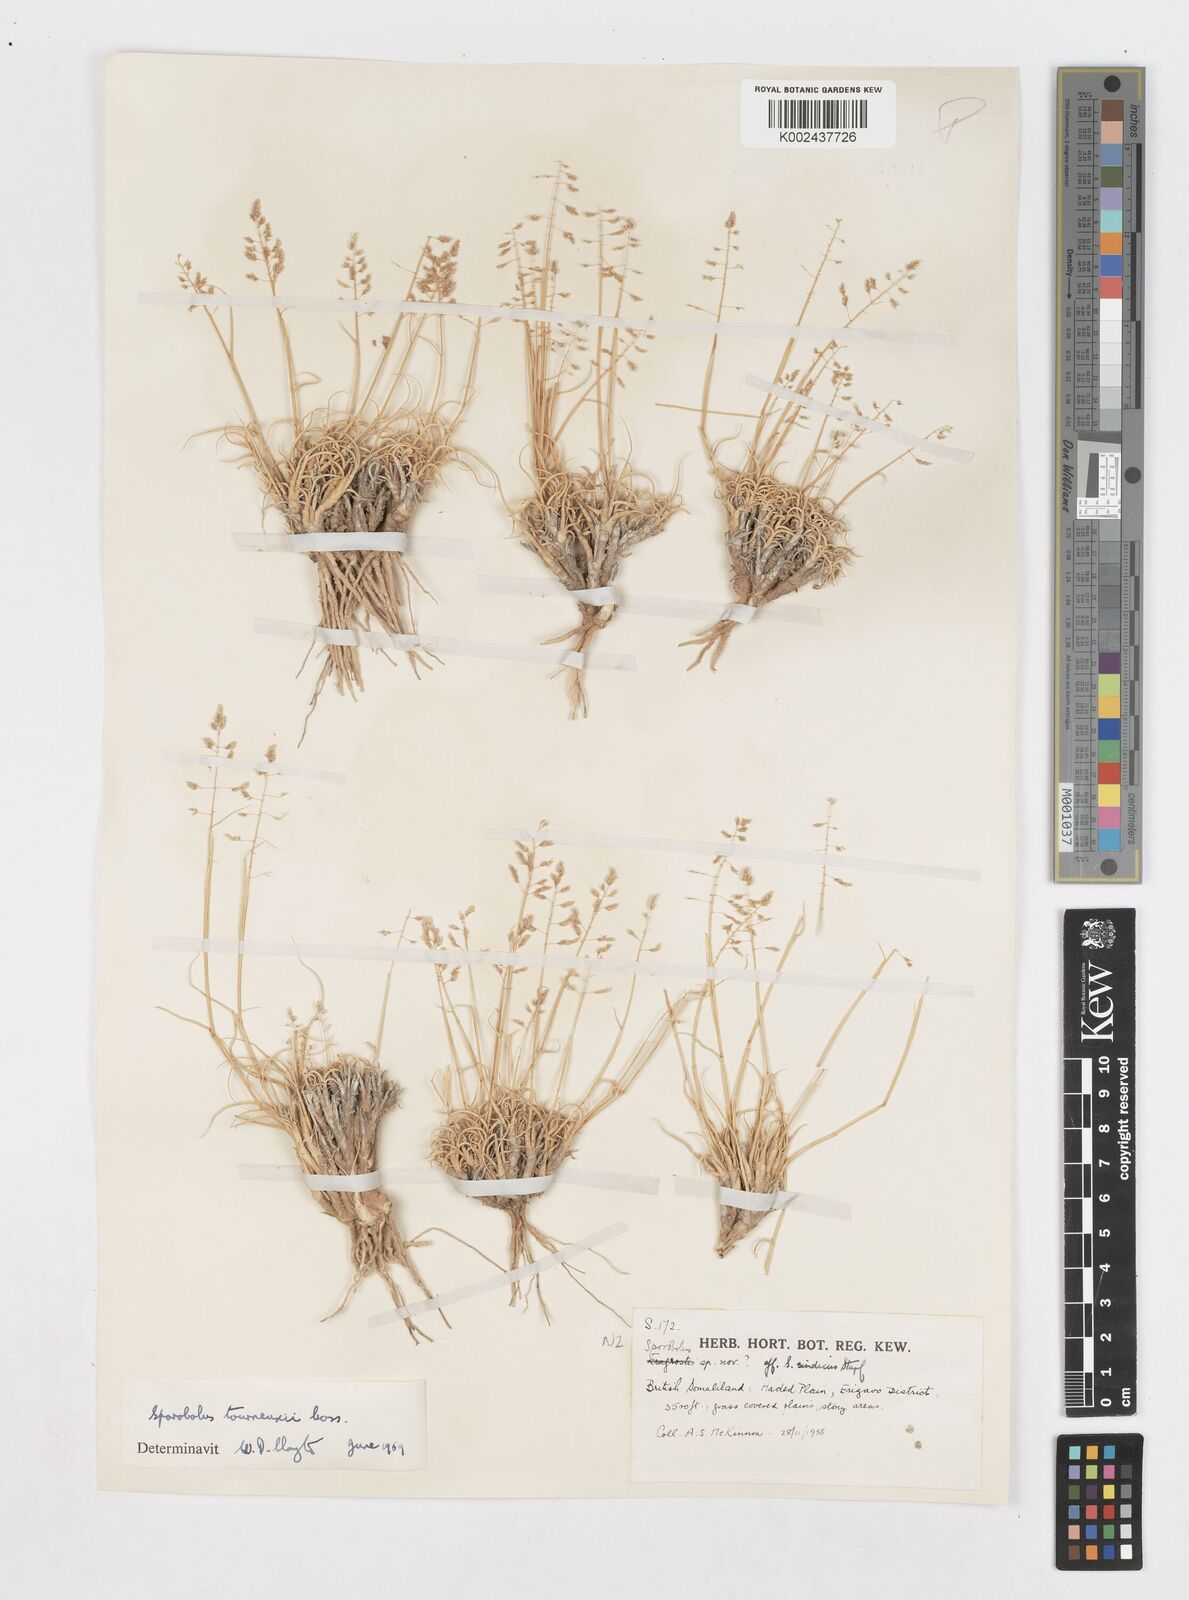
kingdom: Plantae
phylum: Tracheophyta
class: Liliopsida
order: Poales
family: Poaceae
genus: Sporobolus
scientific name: Sporobolus tourneuxii
